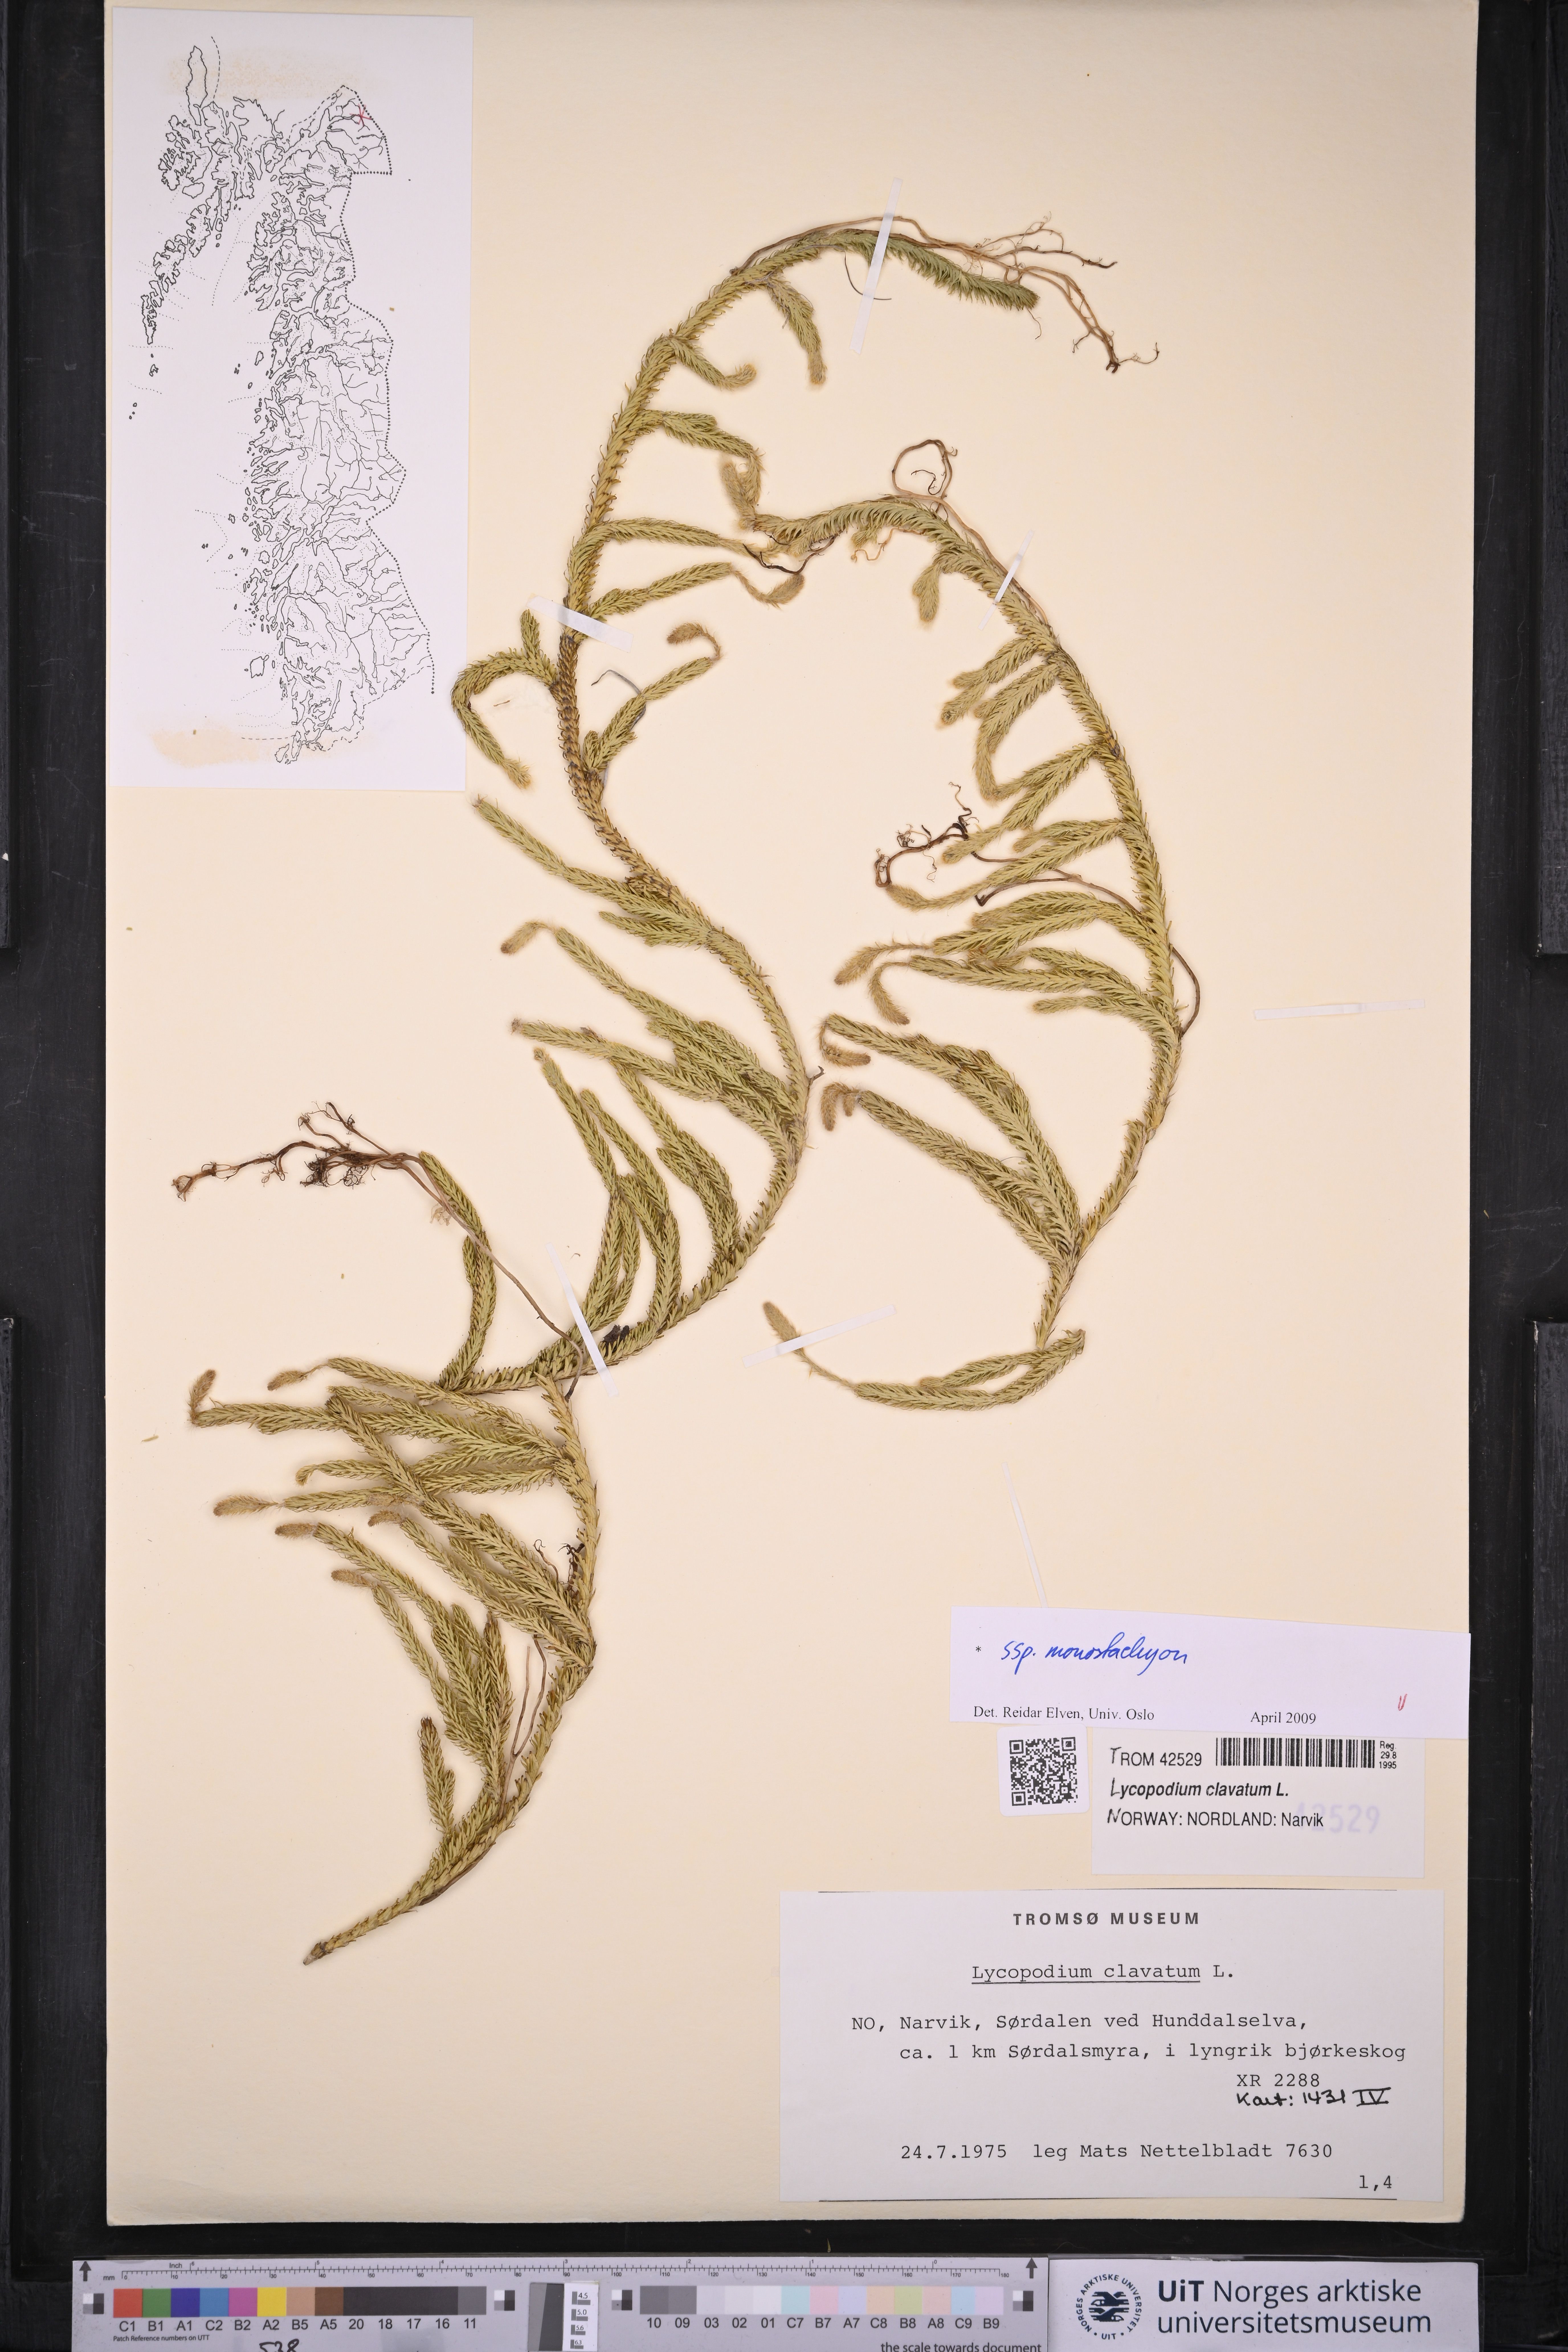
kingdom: Plantae
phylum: Tracheophyta
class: Lycopodiopsida
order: Lycopodiales
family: Lycopodiaceae
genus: Lycopodium
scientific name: Lycopodium lagopus
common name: One-cone clubmoss
